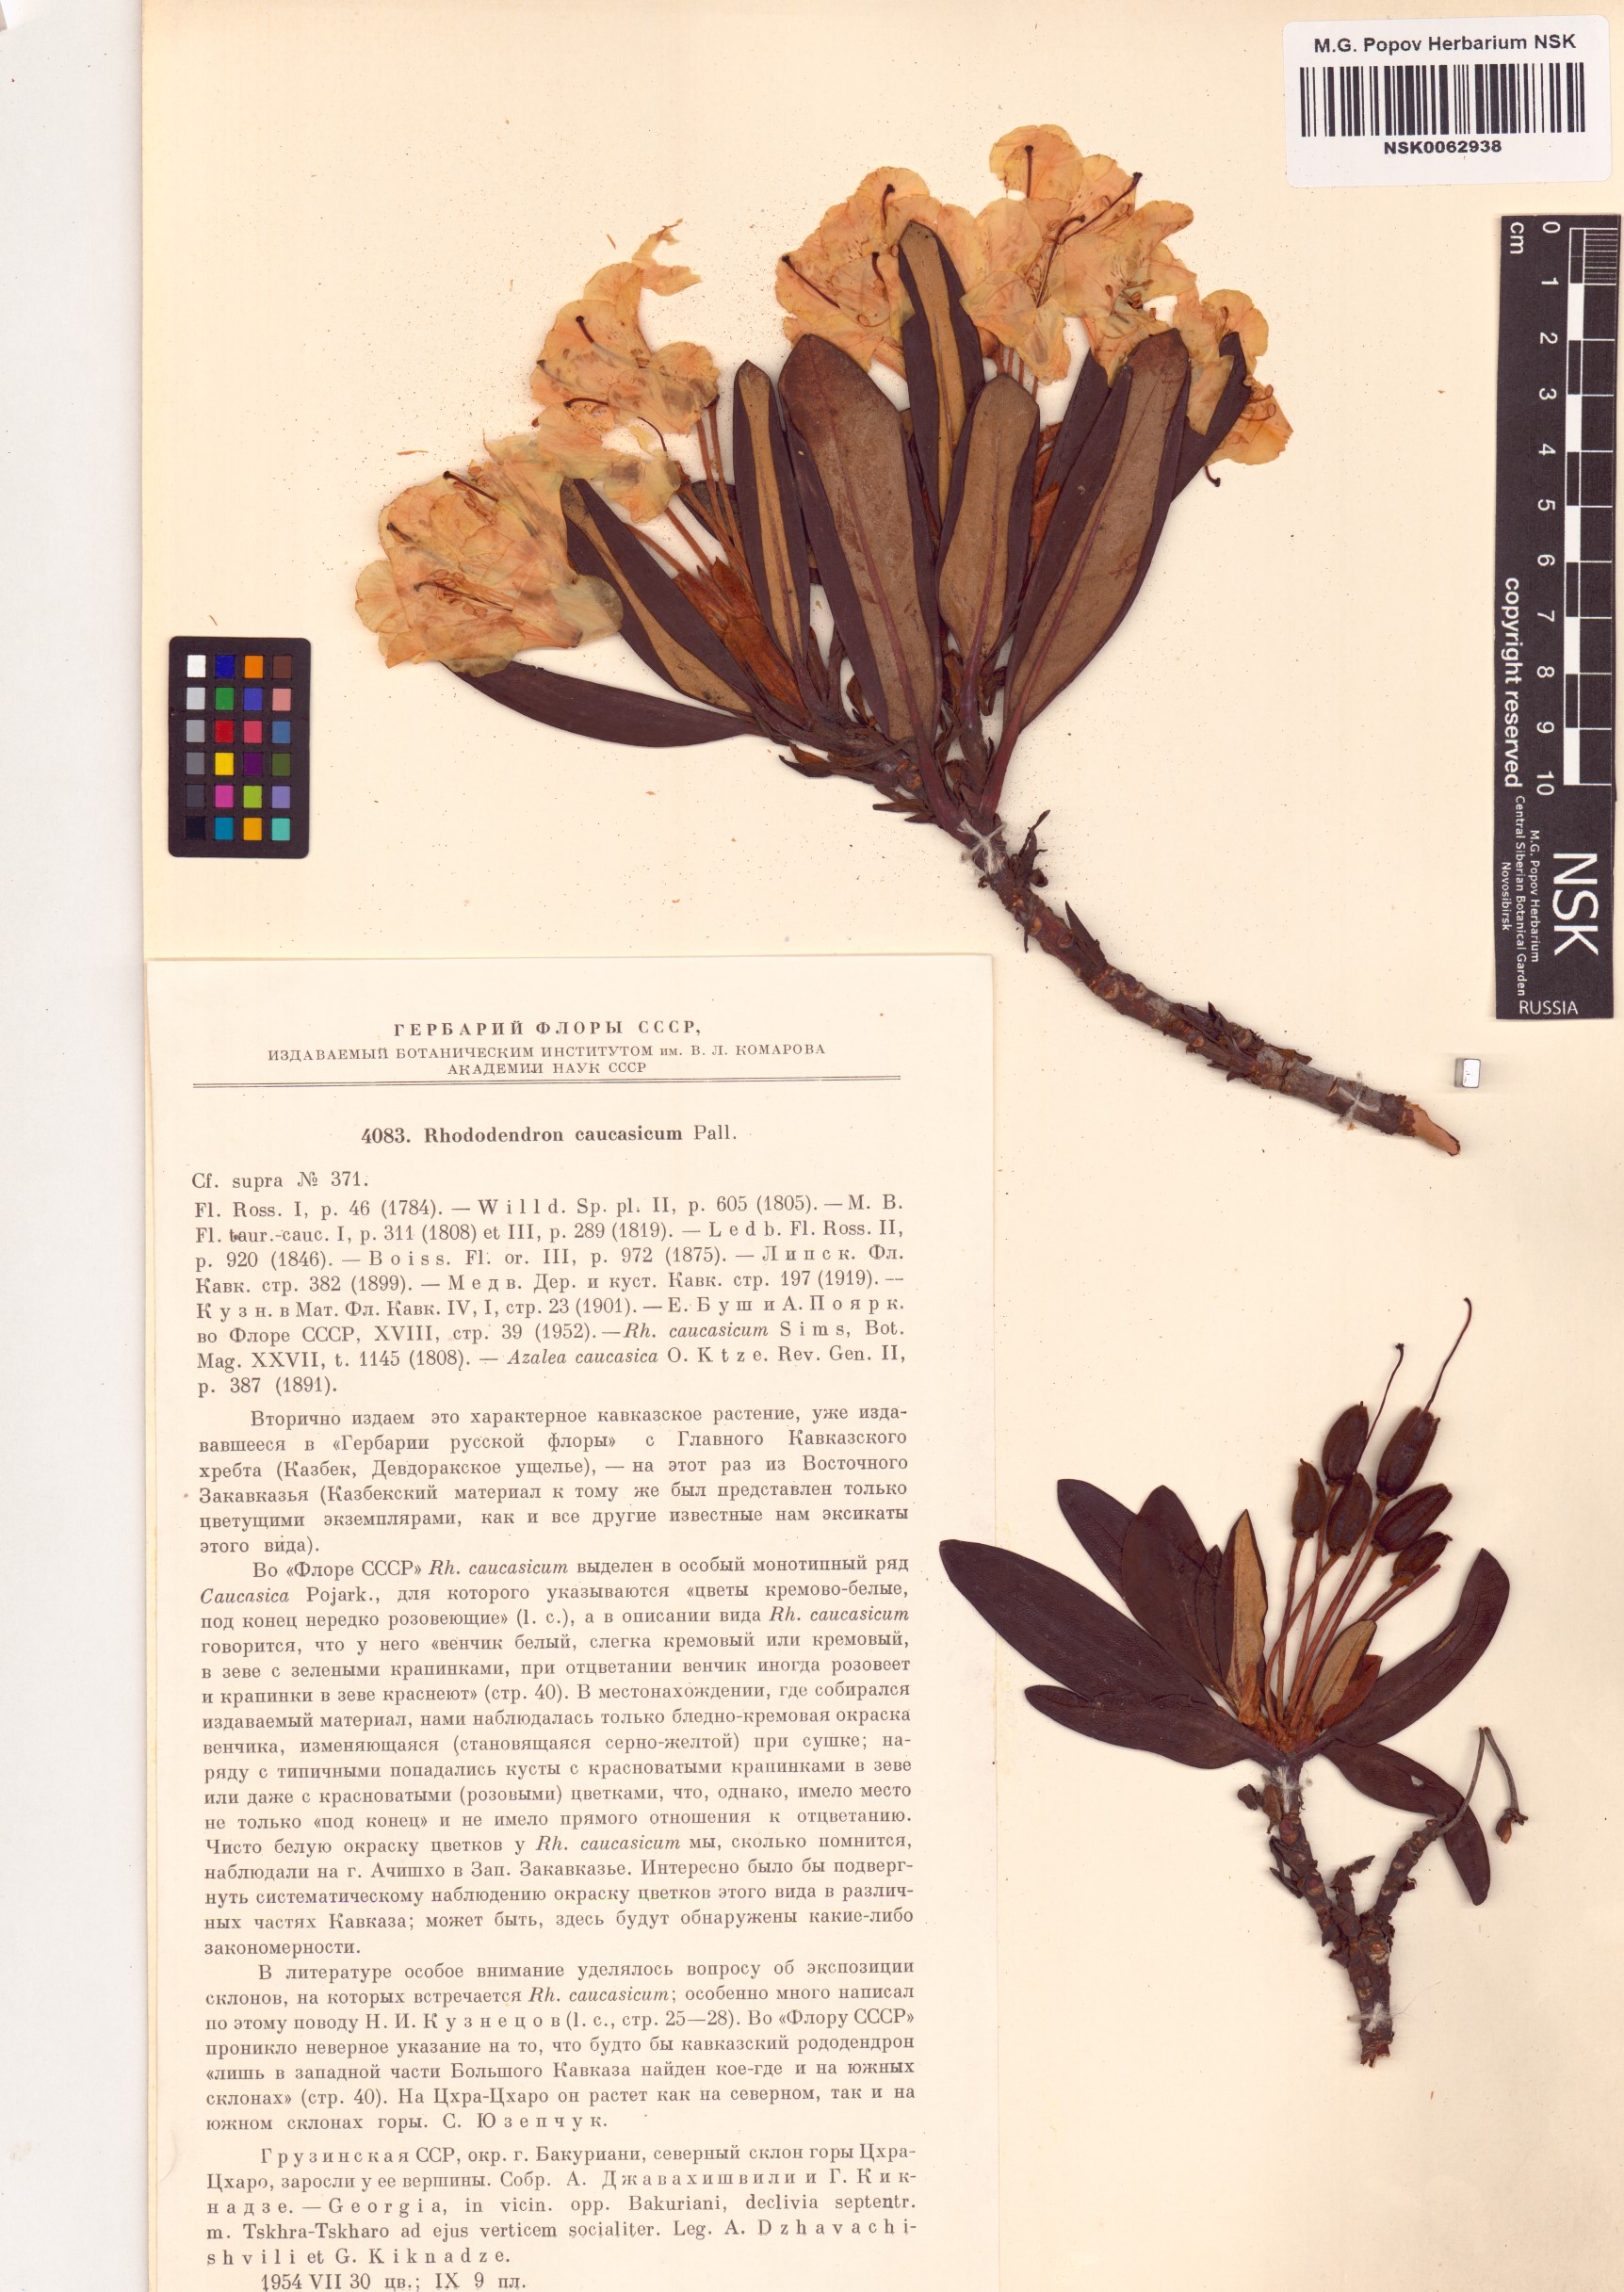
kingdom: Plantae
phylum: Tracheophyta
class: Magnoliopsida
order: Ericales
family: Ericaceae
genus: Rhododendron
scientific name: Rhododendron caucasicum
